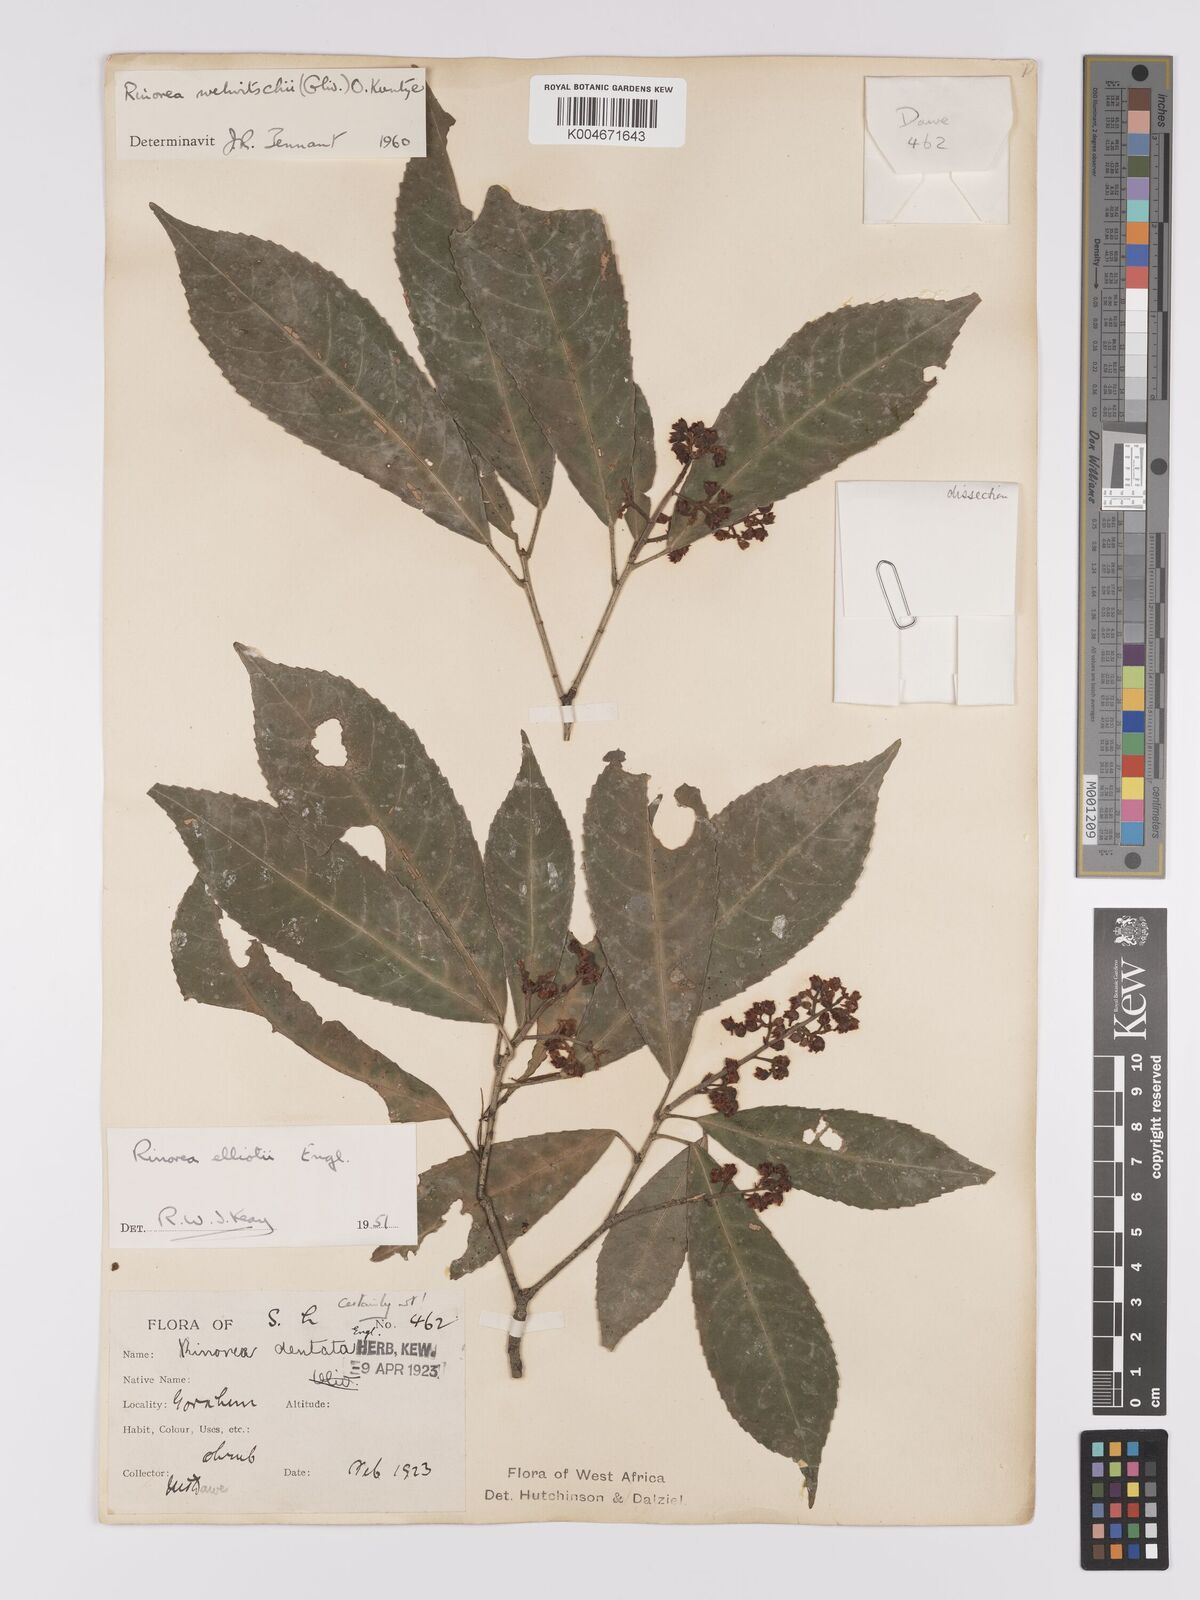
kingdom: Plantae
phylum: Tracheophyta
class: Magnoliopsida
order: Malpighiales
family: Violaceae
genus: Rinorea
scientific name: Rinorea welwitschii
